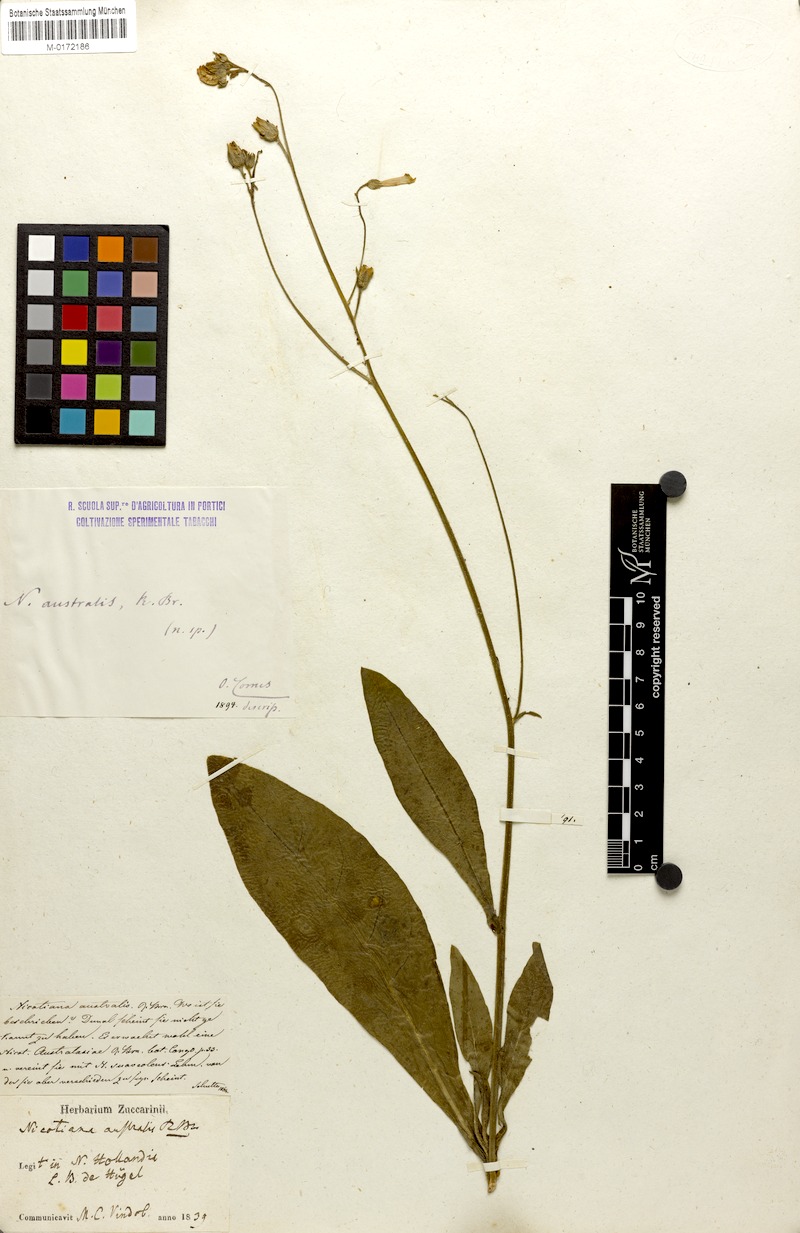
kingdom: Plantae
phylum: Tracheophyta
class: Magnoliopsida
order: Solanales
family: Solanaceae
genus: Nicotiana
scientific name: Nicotiana suaveolens
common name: Australian tobacco
